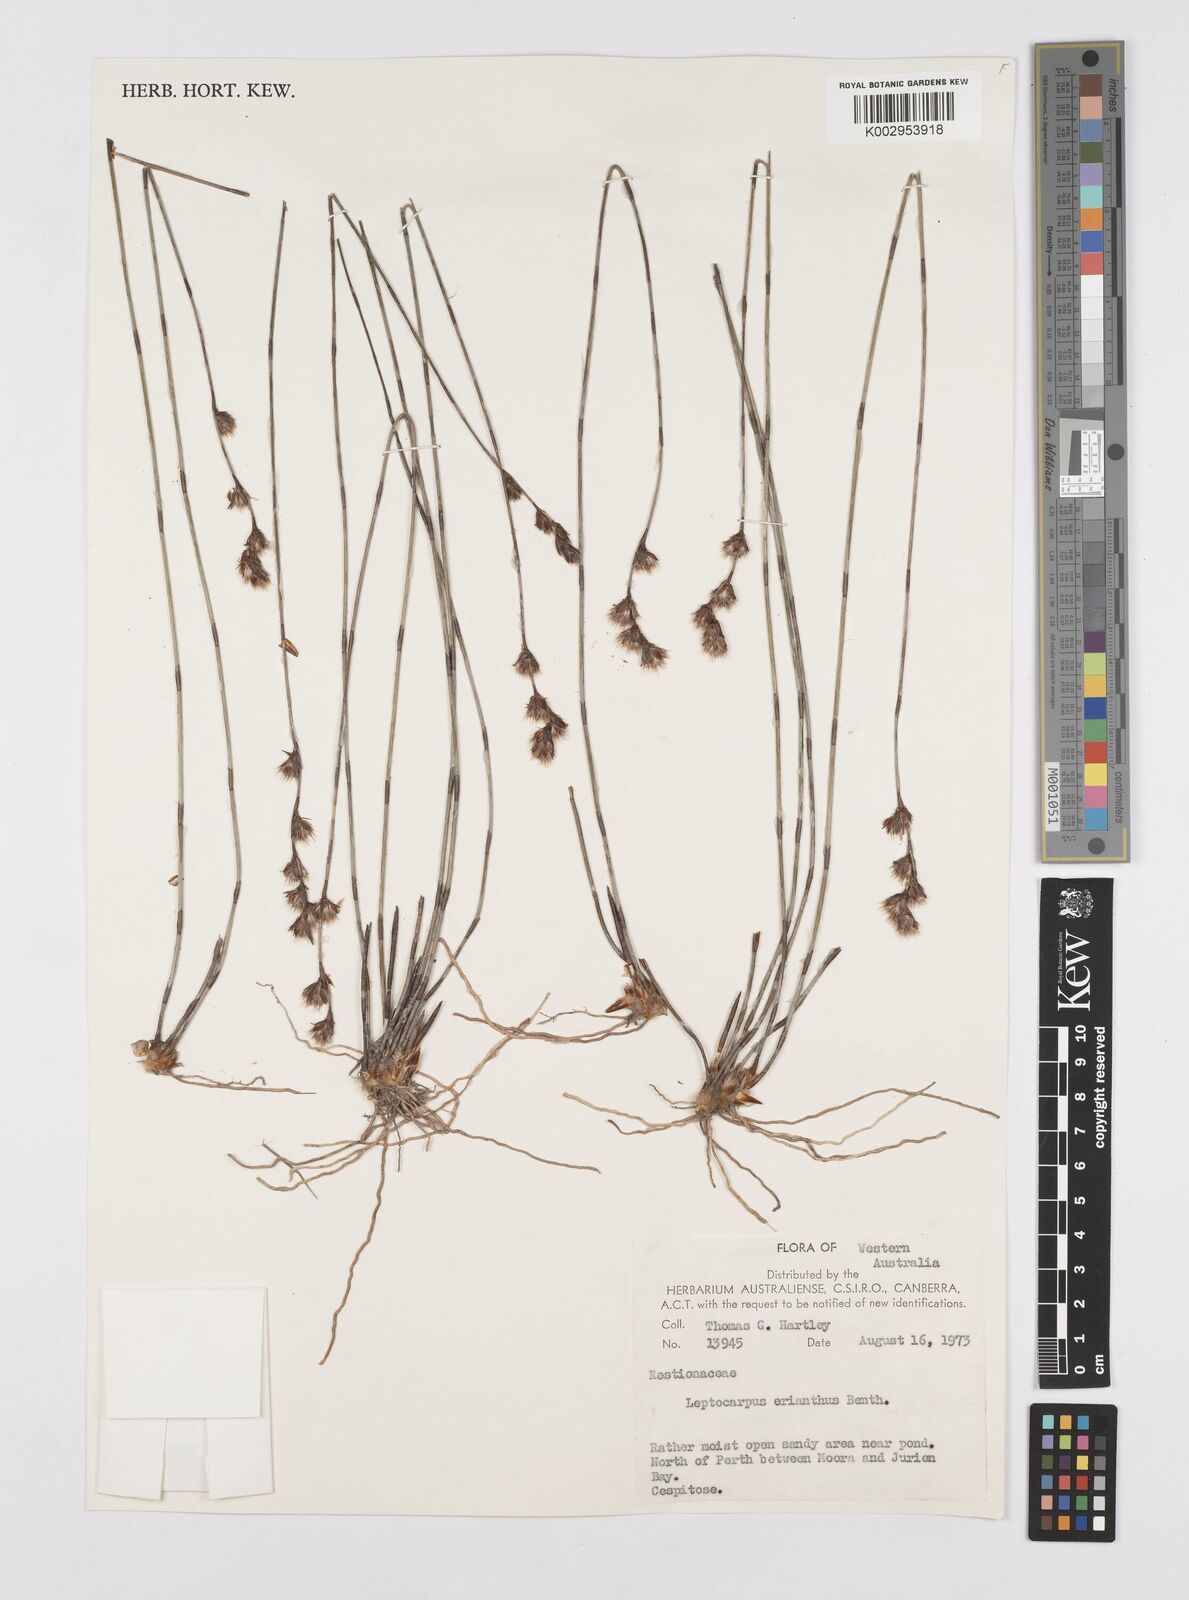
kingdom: Plantae
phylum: Tracheophyta
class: Liliopsida
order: Poales
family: Restionaceae
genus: Chaetanthus
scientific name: Chaetanthus aristatus
